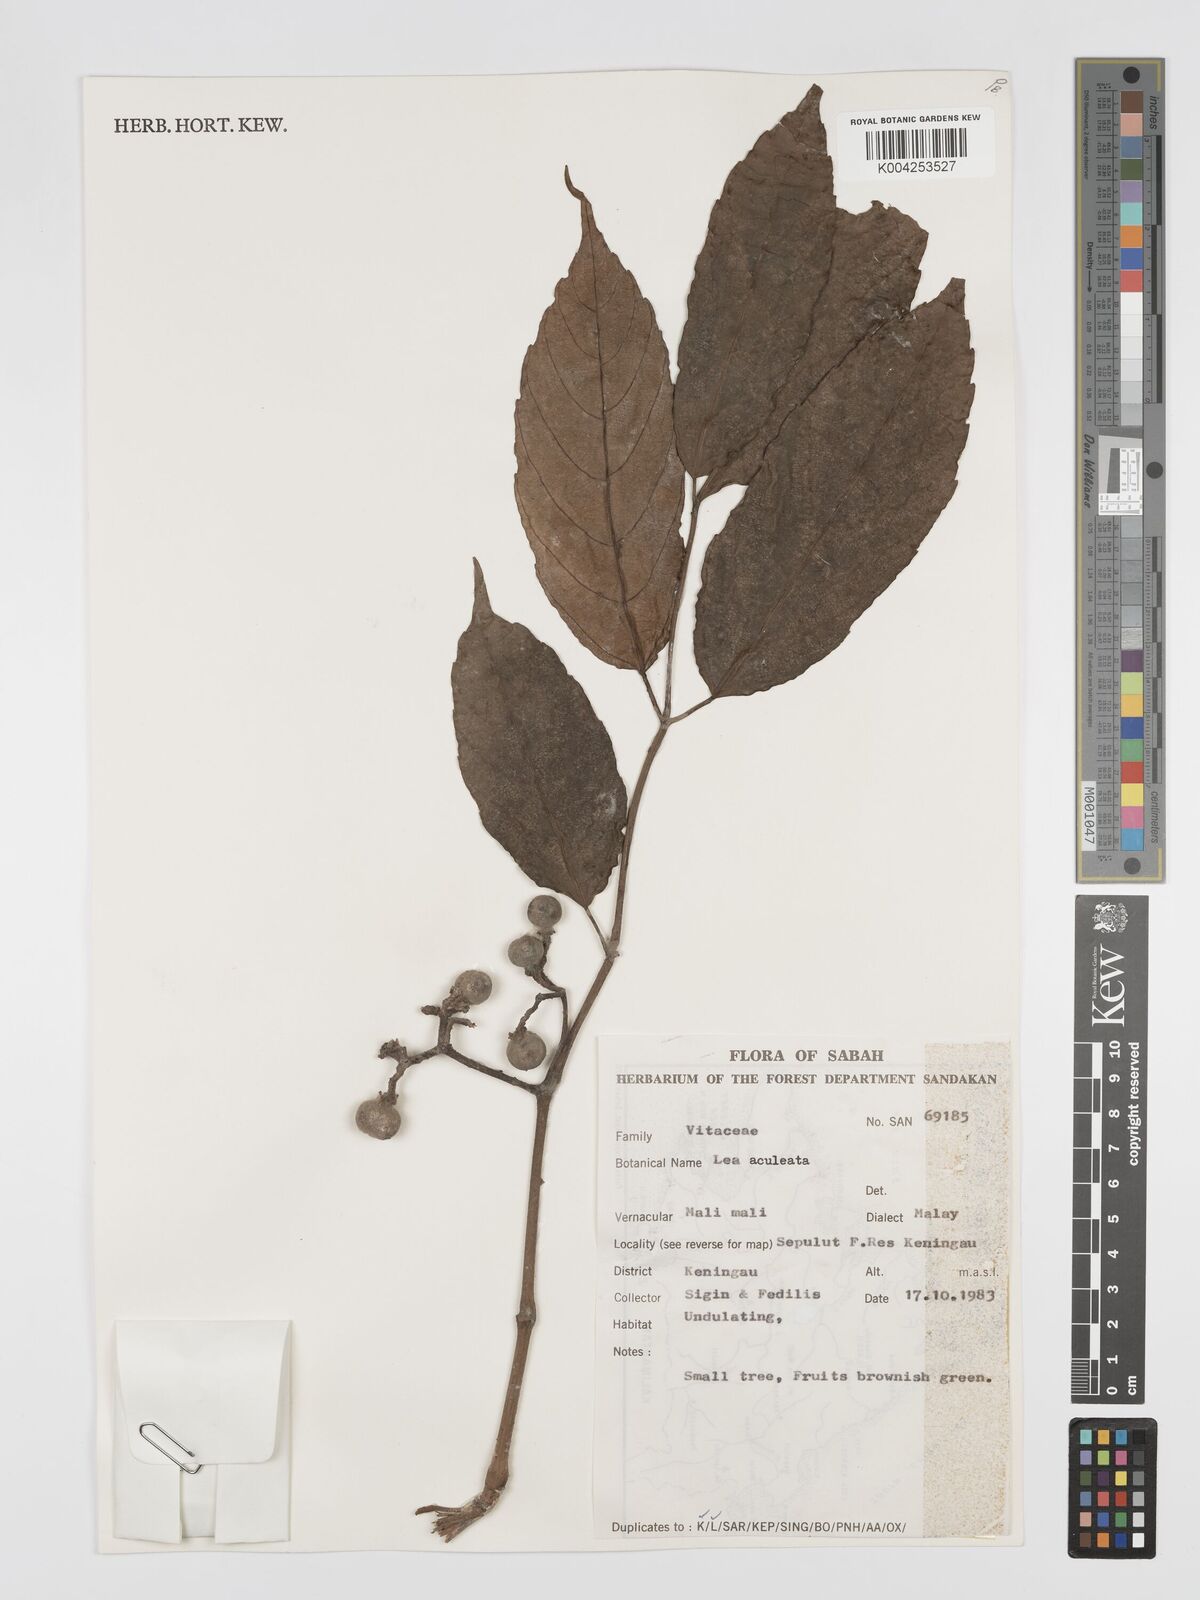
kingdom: Plantae
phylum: Tracheophyta
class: Magnoliopsida
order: Vitales
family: Vitaceae
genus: Leea
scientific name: Leea aculeata
